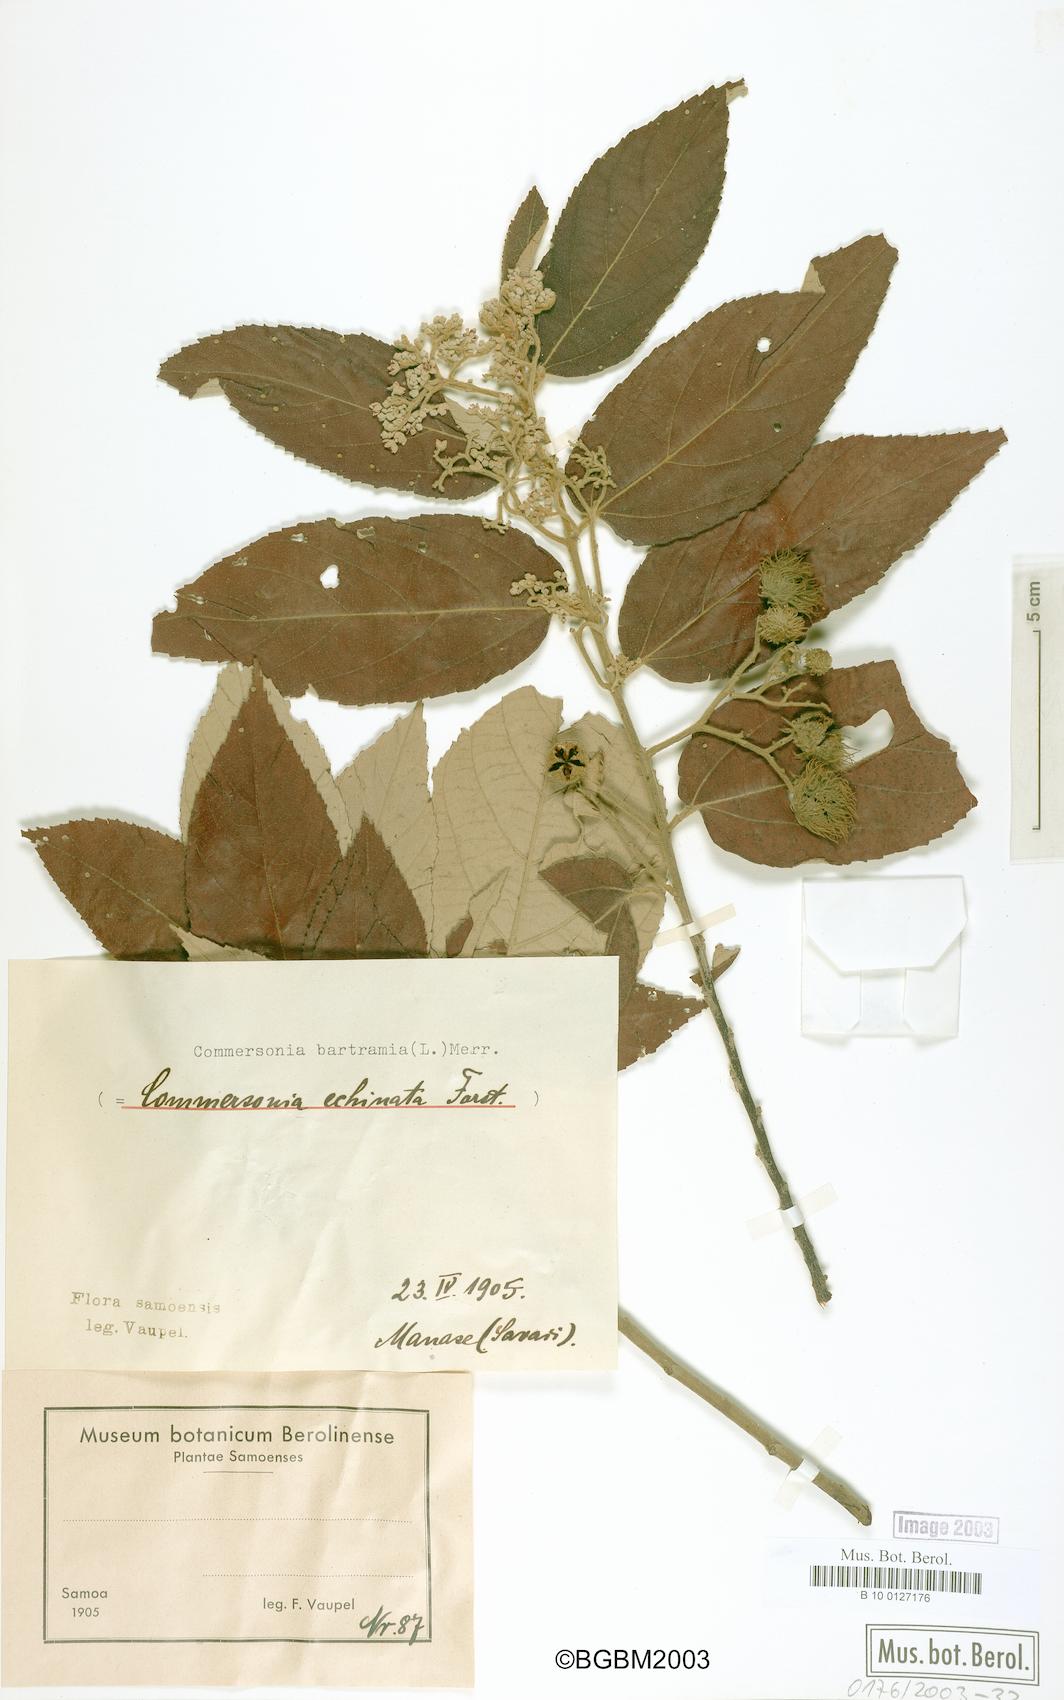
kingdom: Plantae
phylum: Tracheophyta
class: Magnoliopsida
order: Malvales
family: Malvaceae
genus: Commersonia
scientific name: Commersonia bartramia
